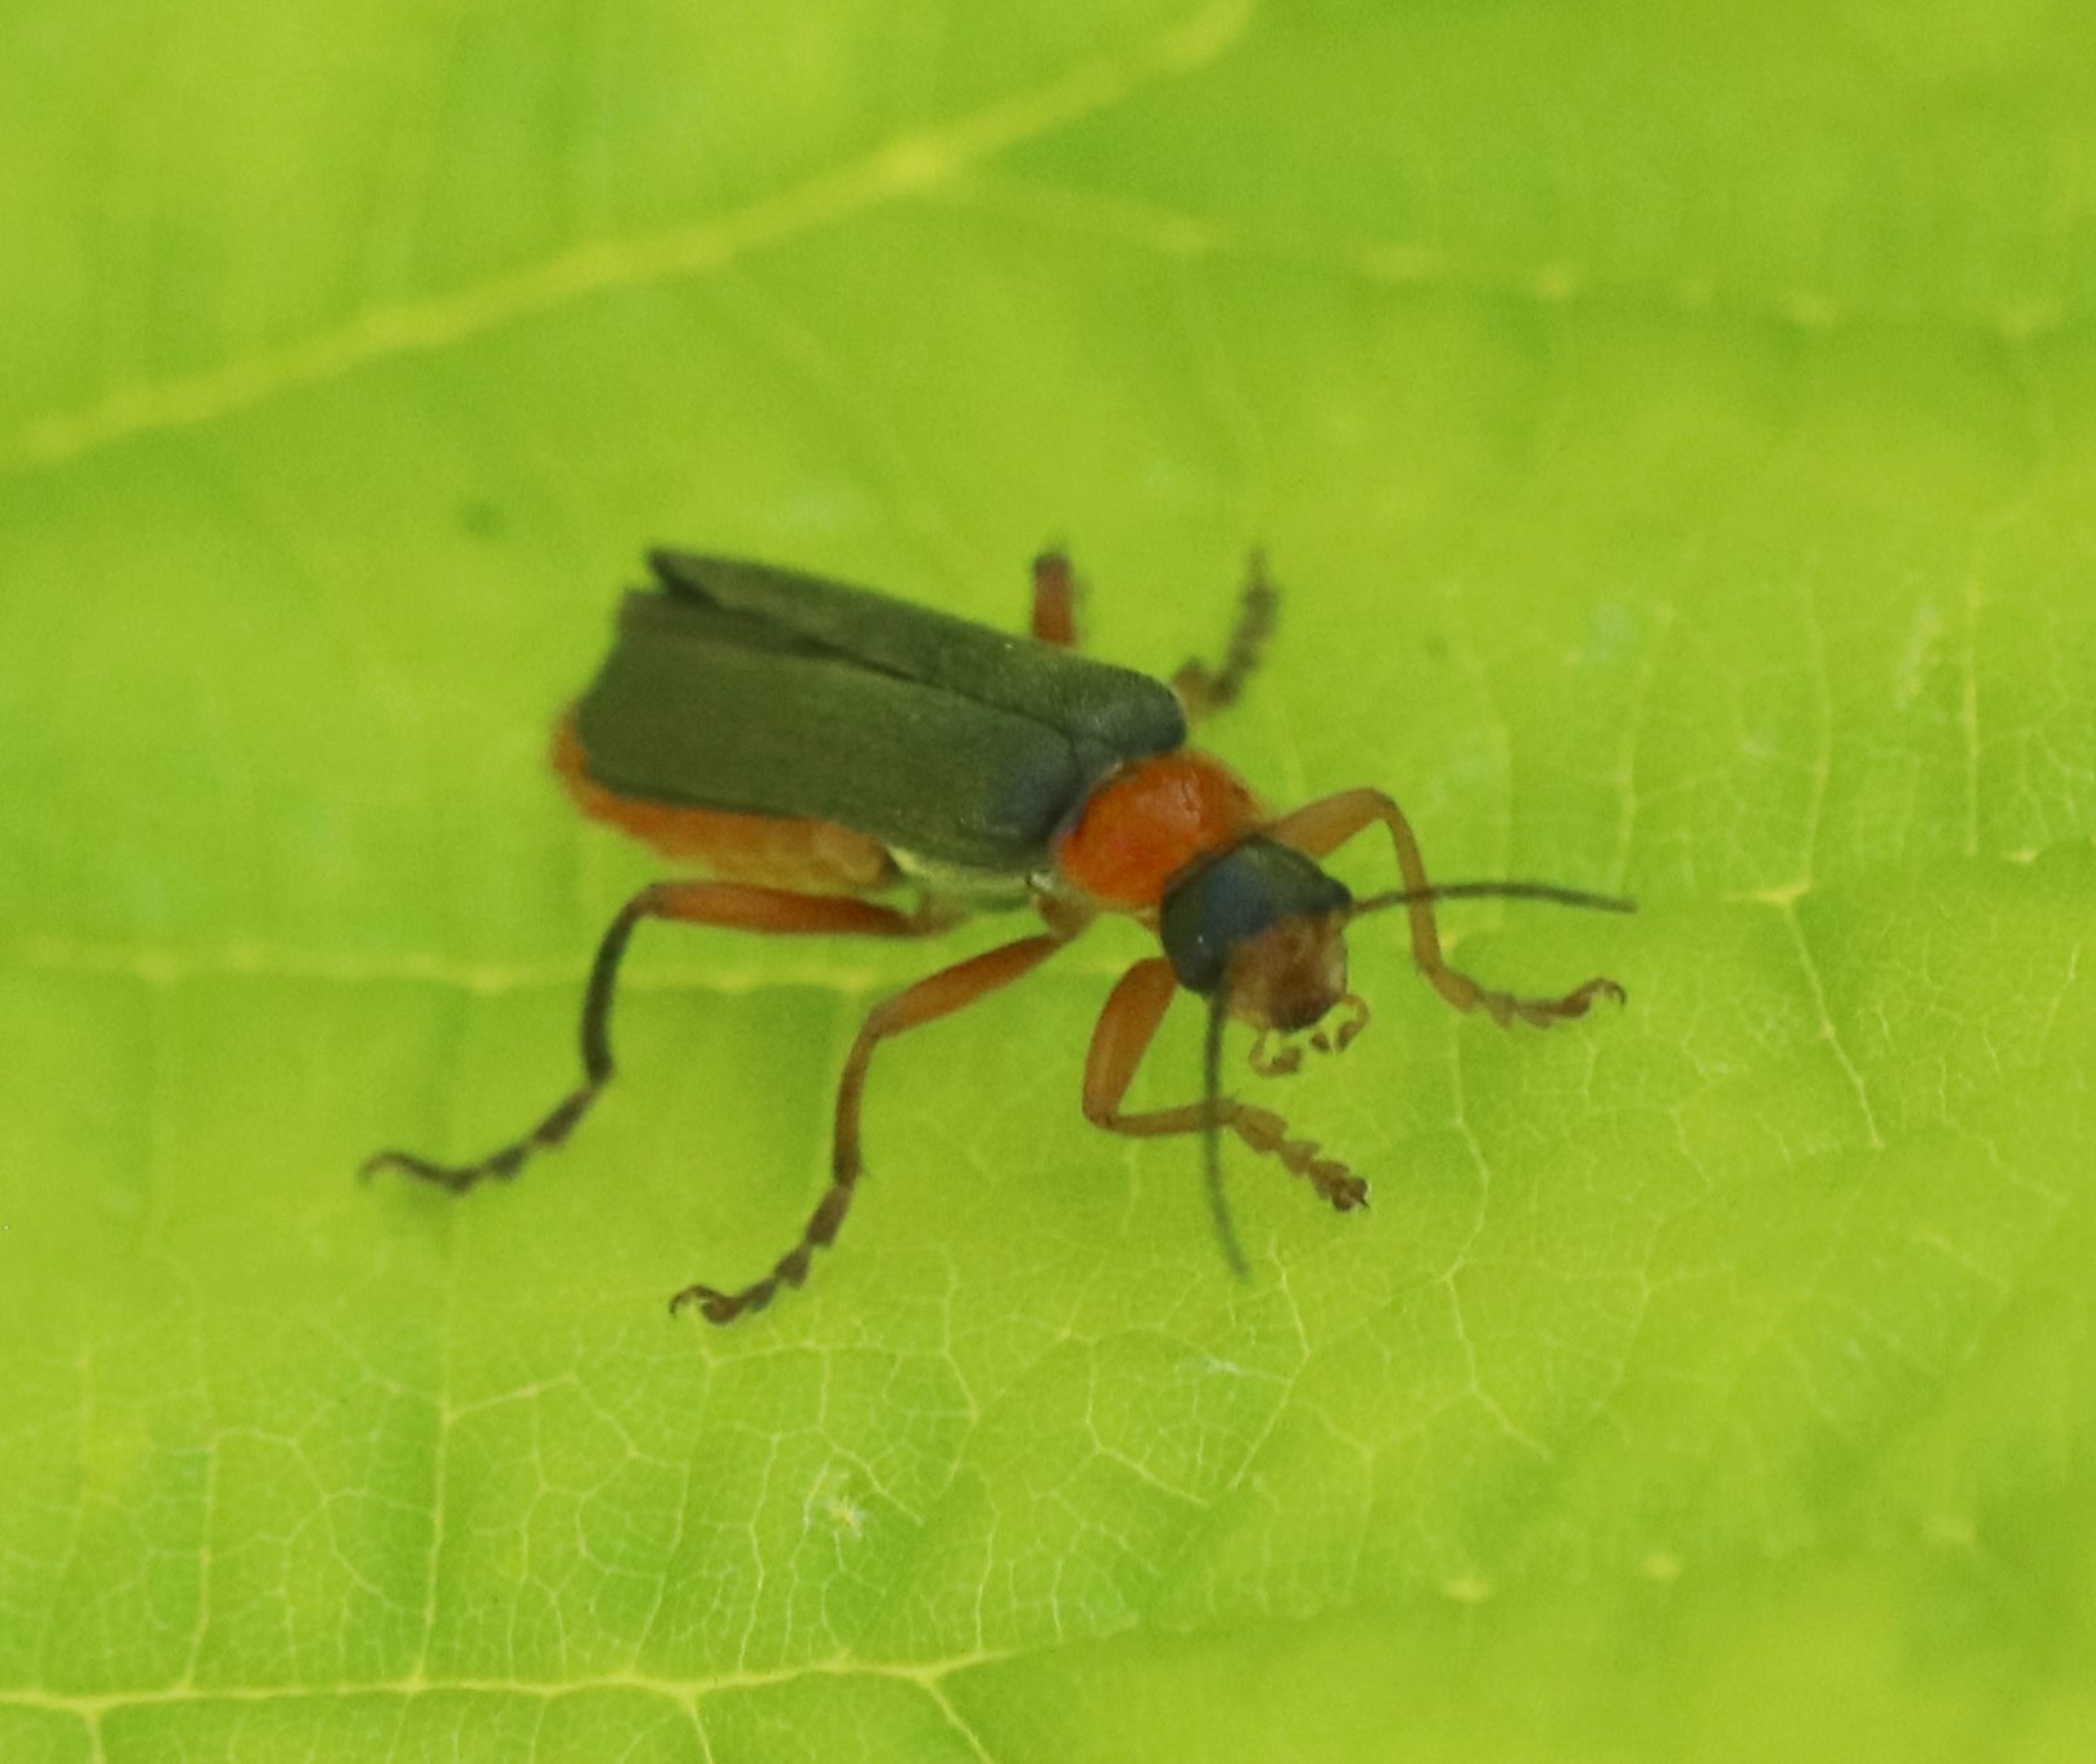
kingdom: Animalia
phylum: Arthropoda
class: Insecta
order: Coleoptera
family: Cantharidae
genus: Cantharis
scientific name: Cantharis pellucida
